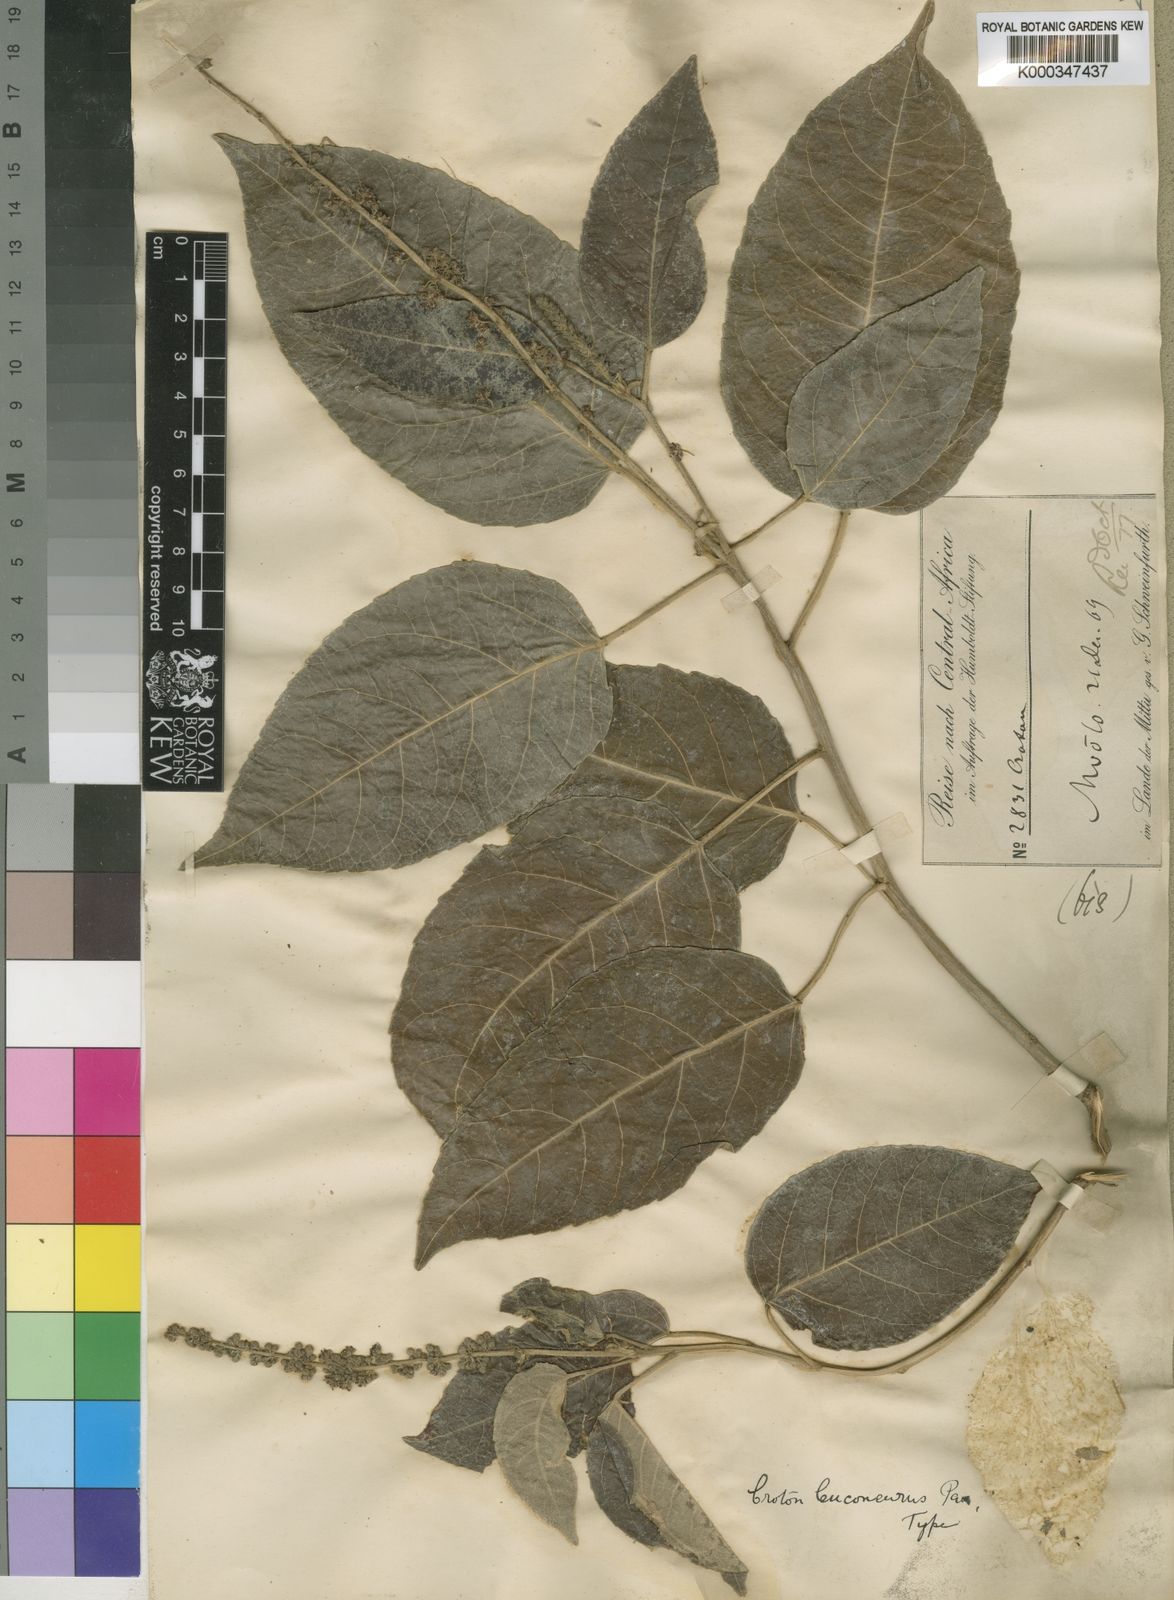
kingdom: Plantae
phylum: Tracheophyta
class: Magnoliopsida
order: Malpighiales
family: Euphorbiaceae
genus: Croton
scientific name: Croton leuconeurus
